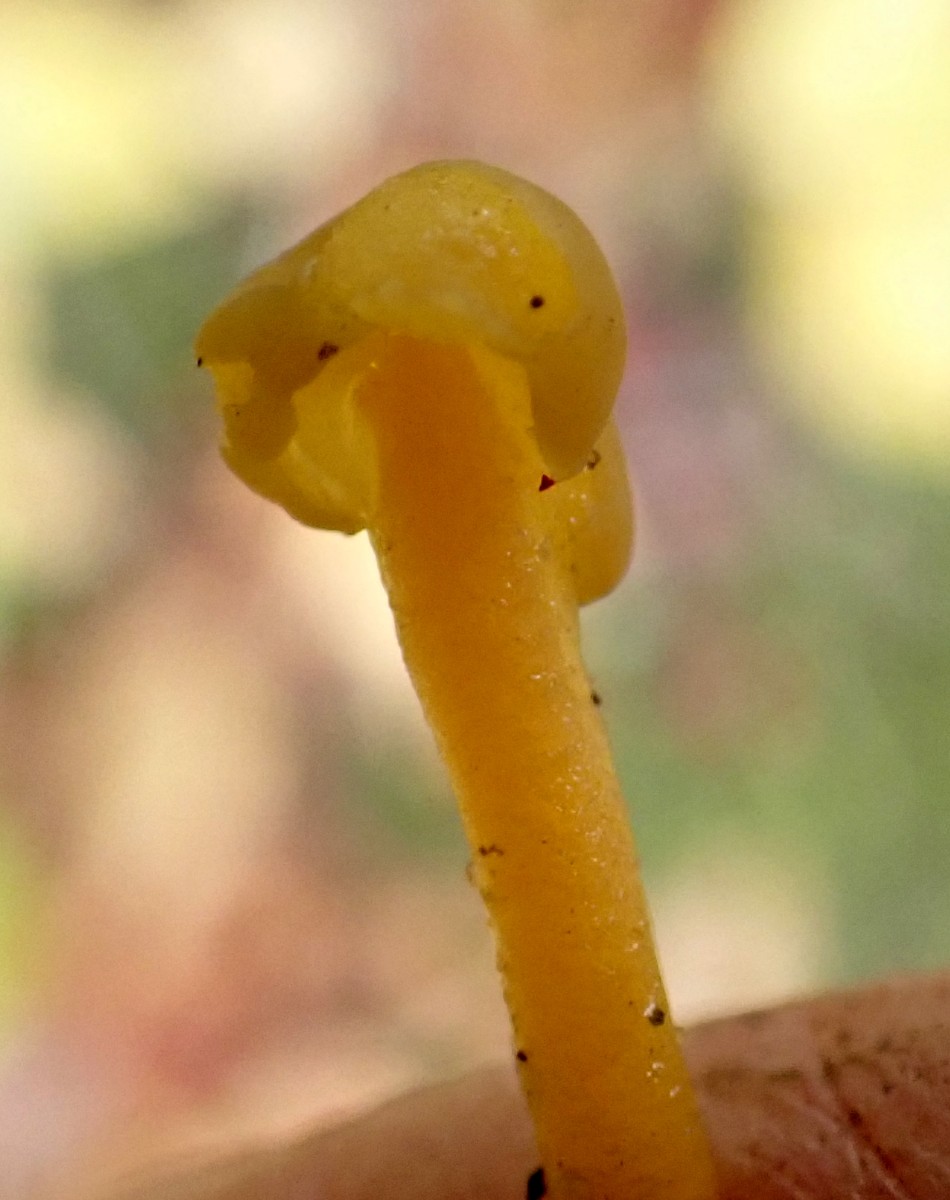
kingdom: Fungi
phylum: Ascomycota
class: Leotiomycetes
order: Leotiales
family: Leotiaceae
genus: Leotia
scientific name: Leotia lubrica
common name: ravsvamp
